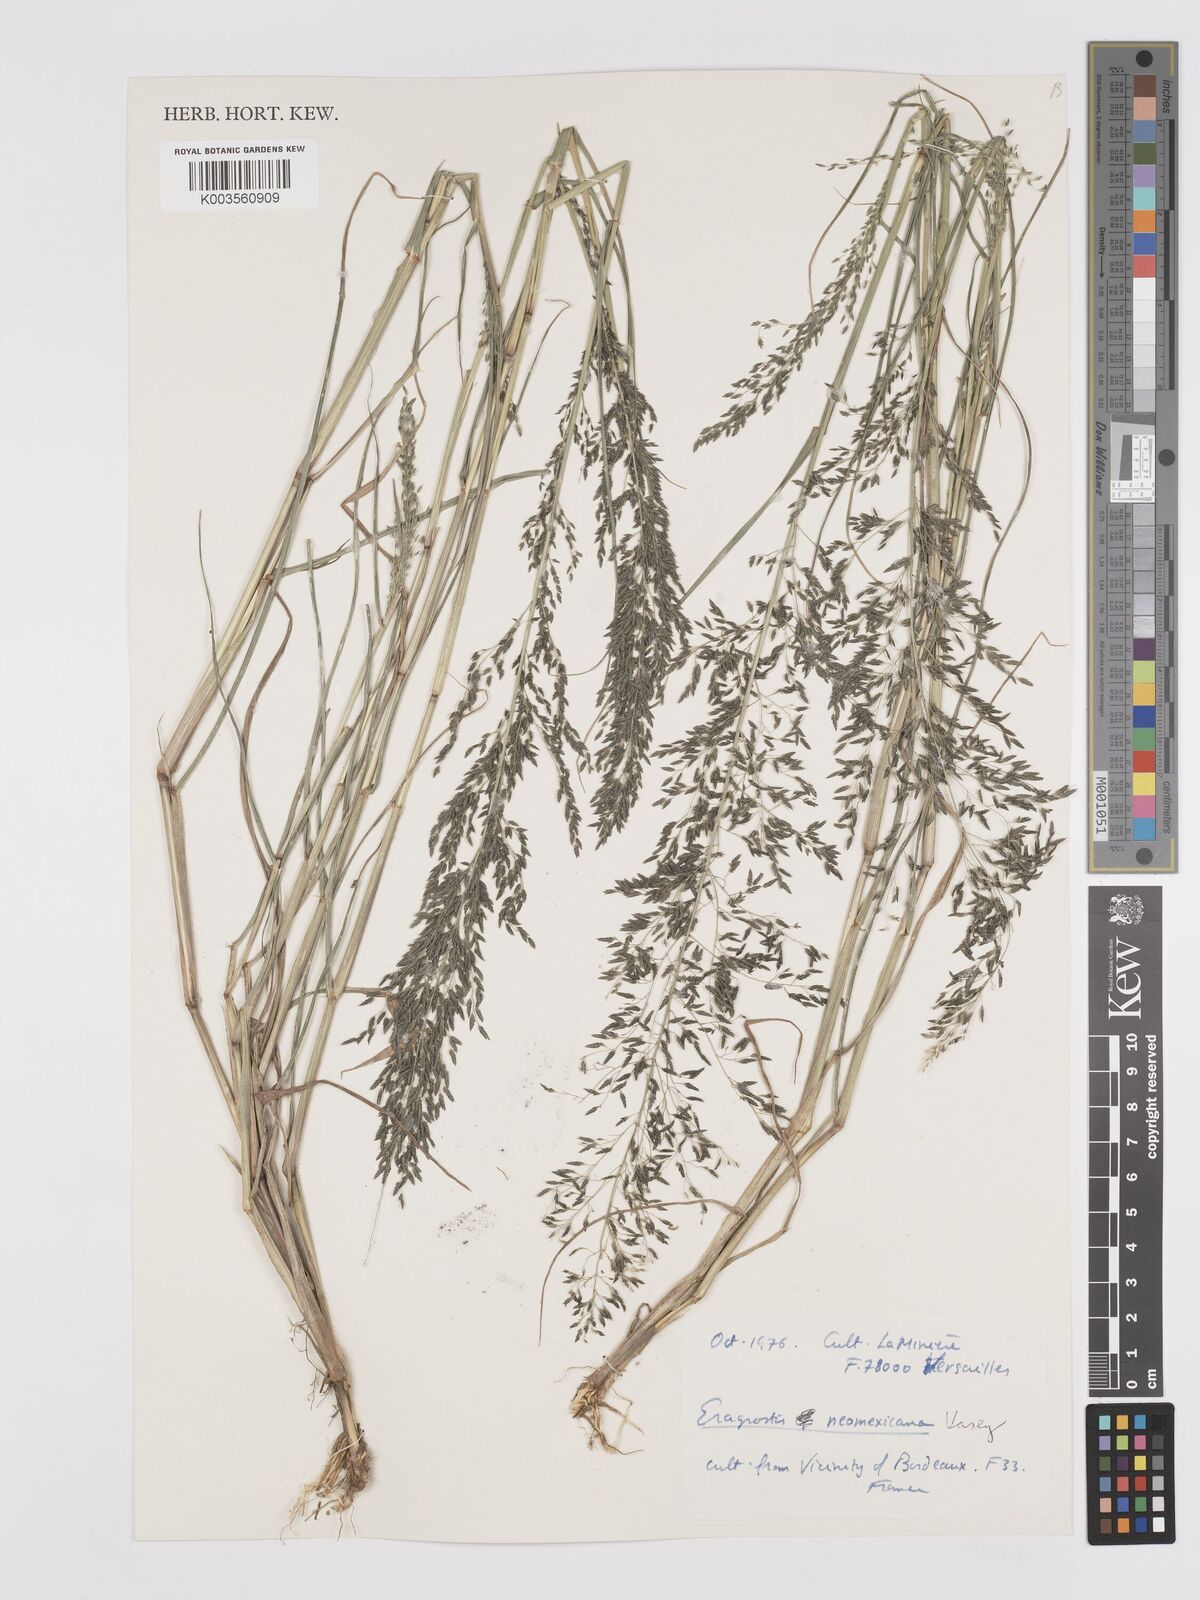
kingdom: Plantae
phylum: Tracheophyta
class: Liliopsida
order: Poales
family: Poaceae
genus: Eragrostis
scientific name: Eragrostis mexicana
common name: Mexican love grass
